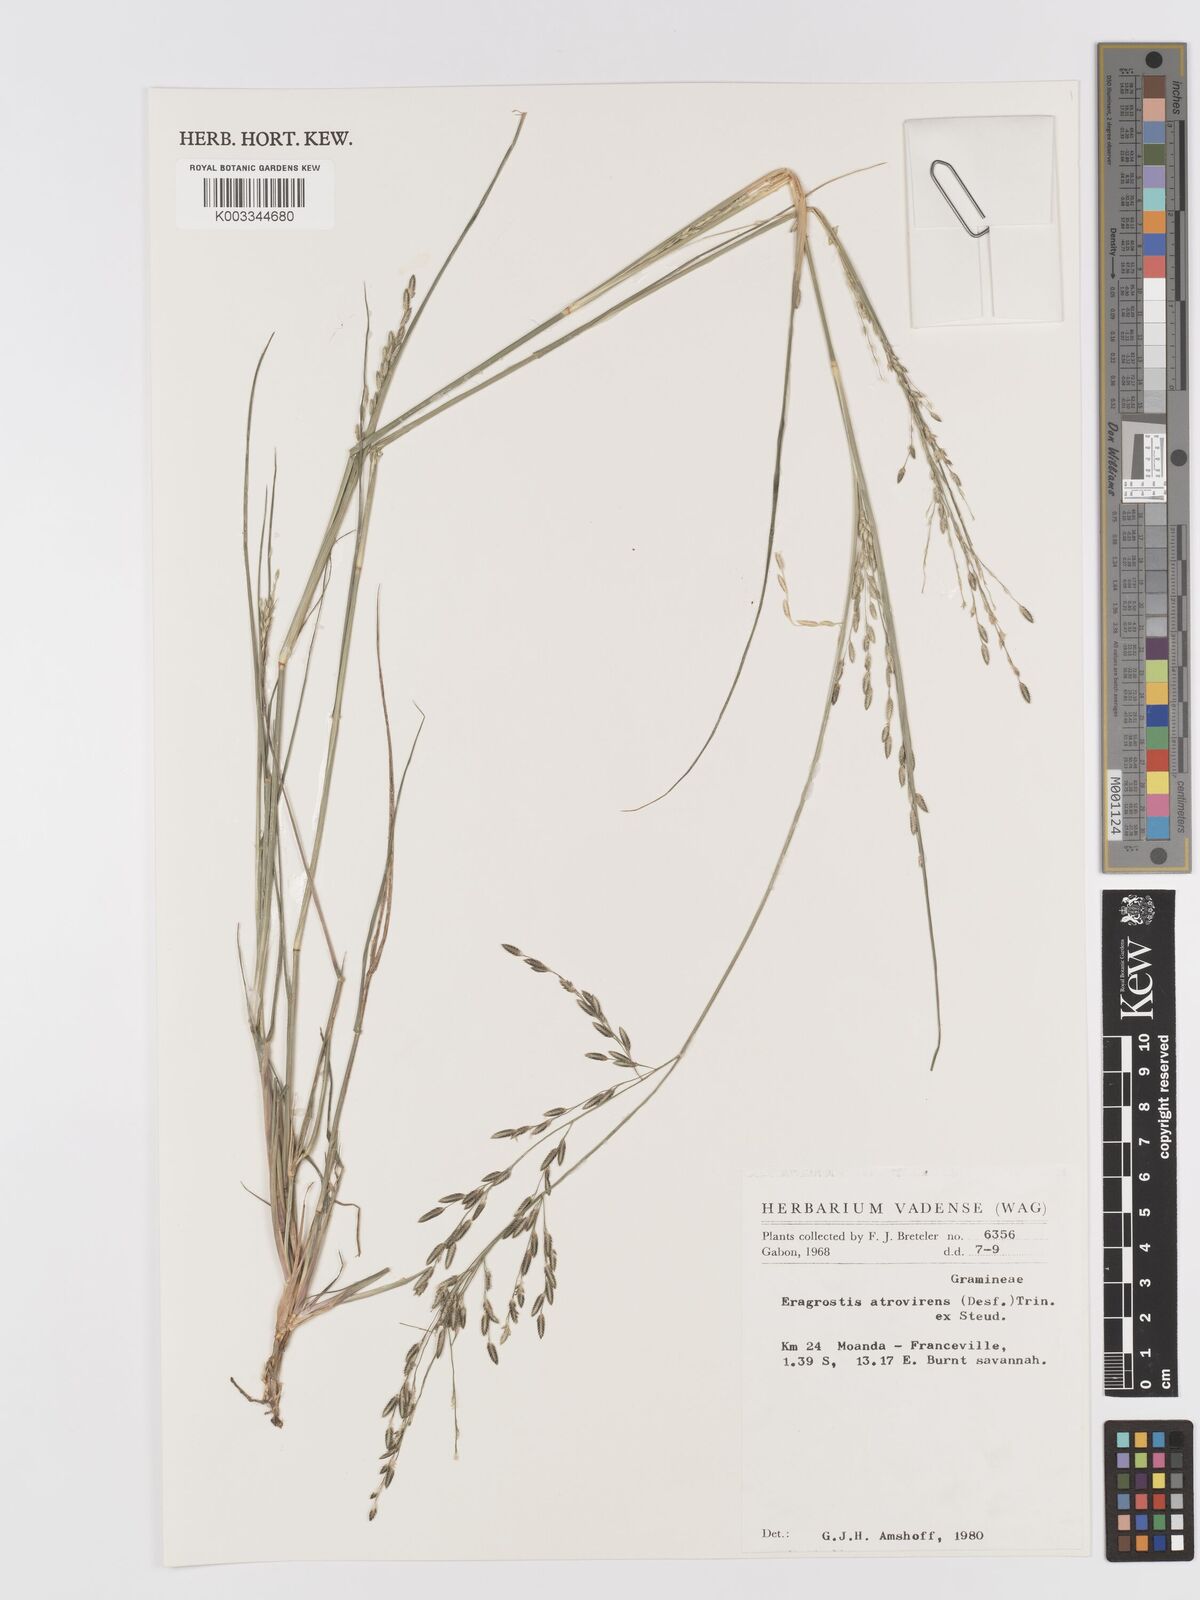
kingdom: Plantae
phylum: Tracheophyta
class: Liliopsida
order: Poales
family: Poaceae
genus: Eragrostis
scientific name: Eragrostis atrovirens
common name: Thalia lovegrass
